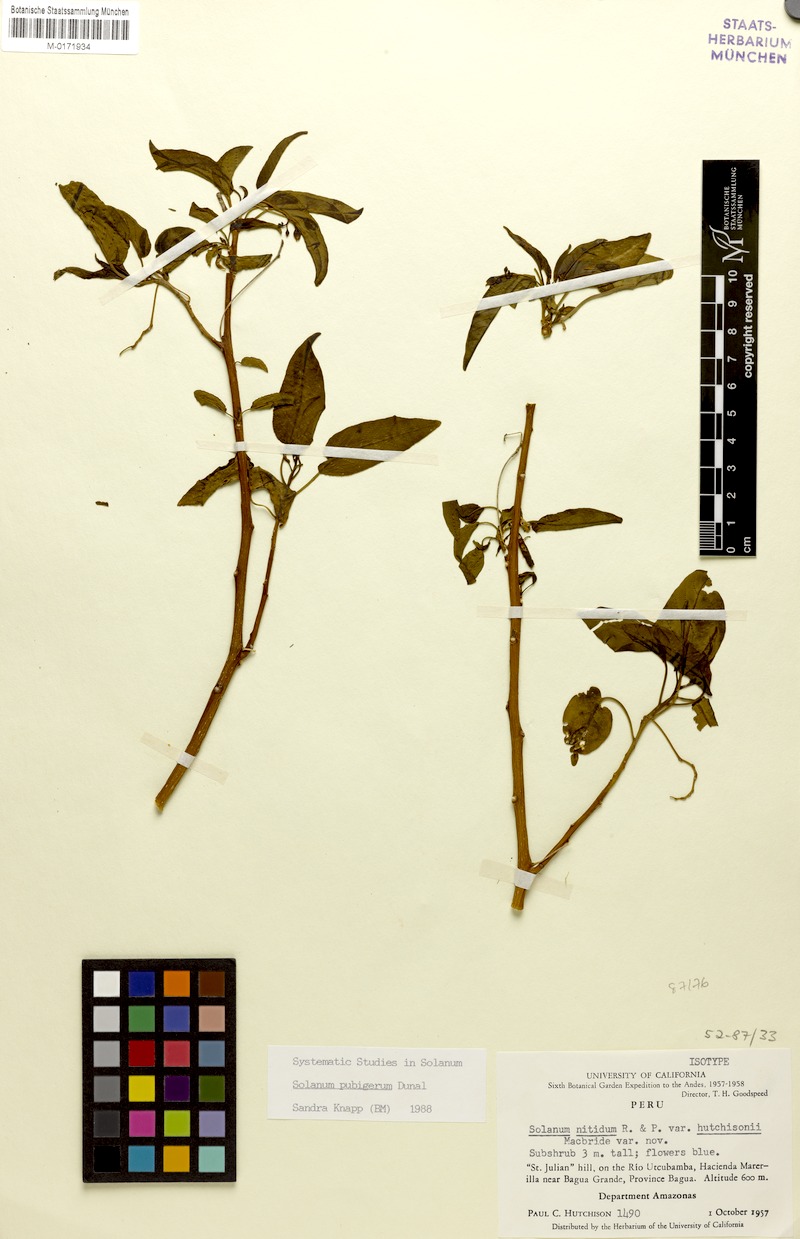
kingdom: Plantae
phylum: Tracheophyta
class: Magnoliopsida
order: Solanales
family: Solanaceae
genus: Solanum
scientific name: Solanum pubigerum
